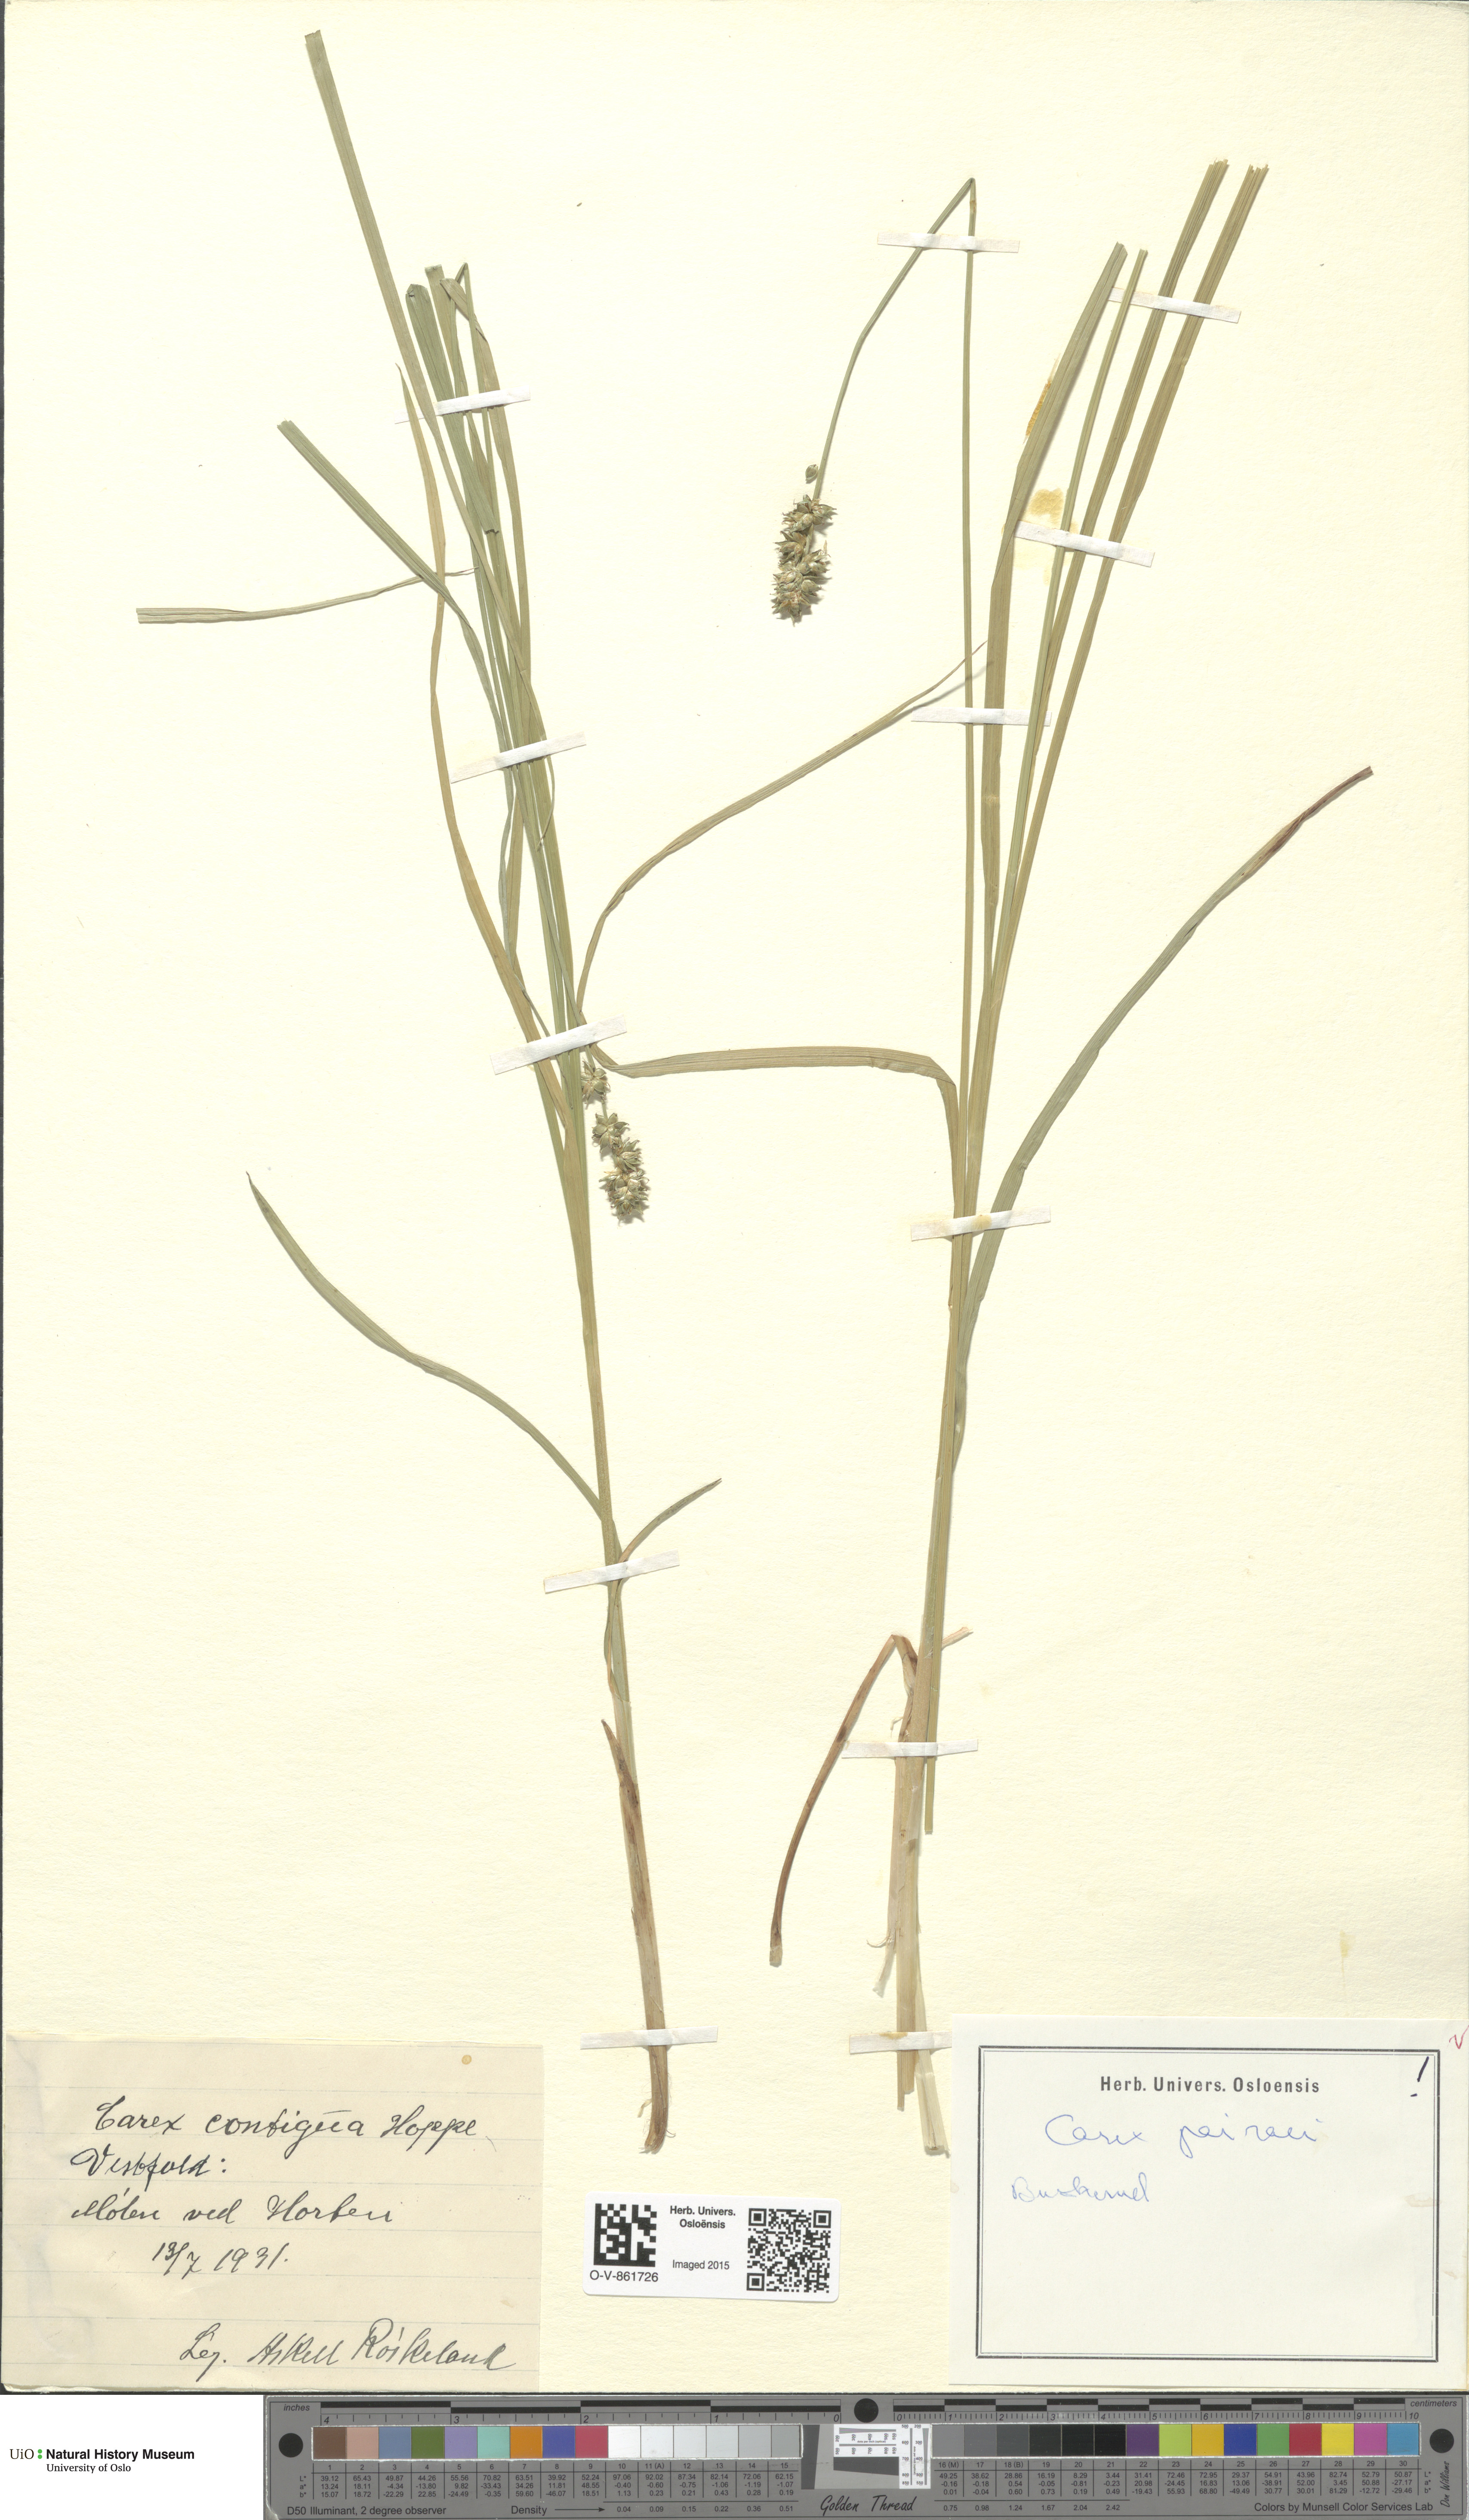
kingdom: Plantae
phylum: Tracheophyta
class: Liliopsida
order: Poales
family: Cyperaceae
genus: Carex
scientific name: Carex pairae
